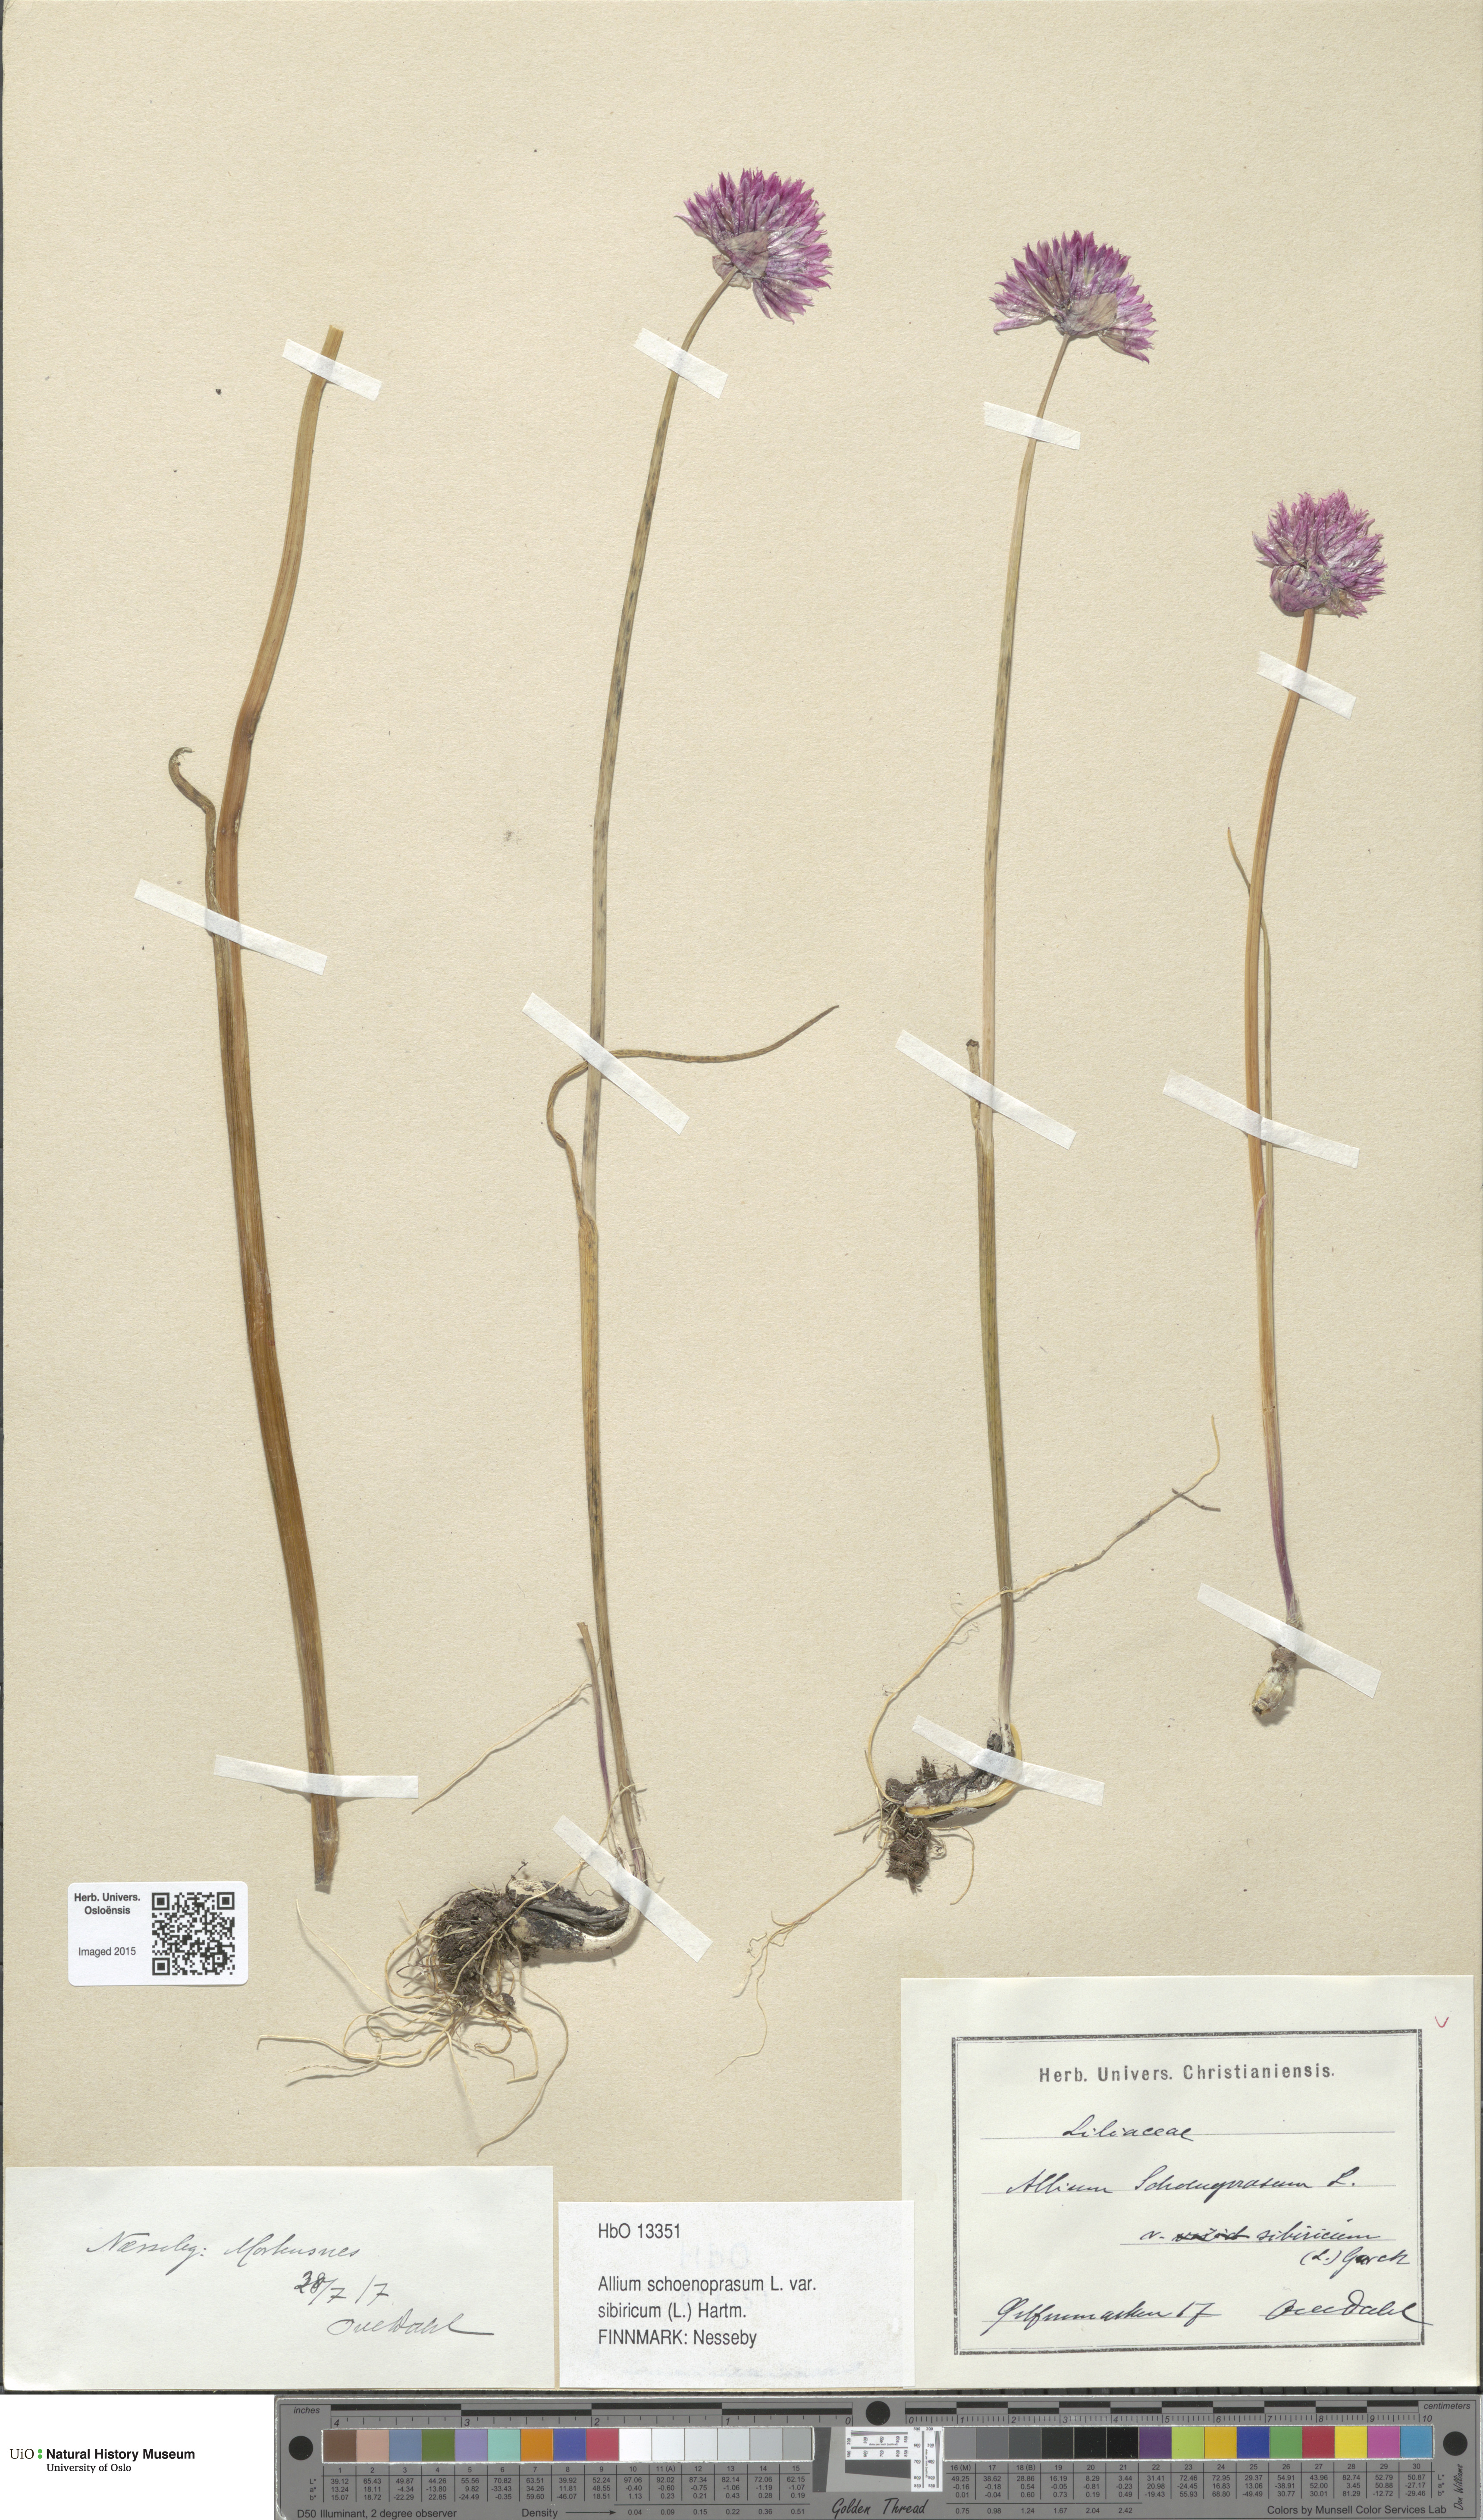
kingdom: Plantae
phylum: Tracheophyta
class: Liliopsida
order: Asparagales
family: Amaryllidaceae
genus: Allium
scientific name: Allium schoenoprasum
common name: Chives
